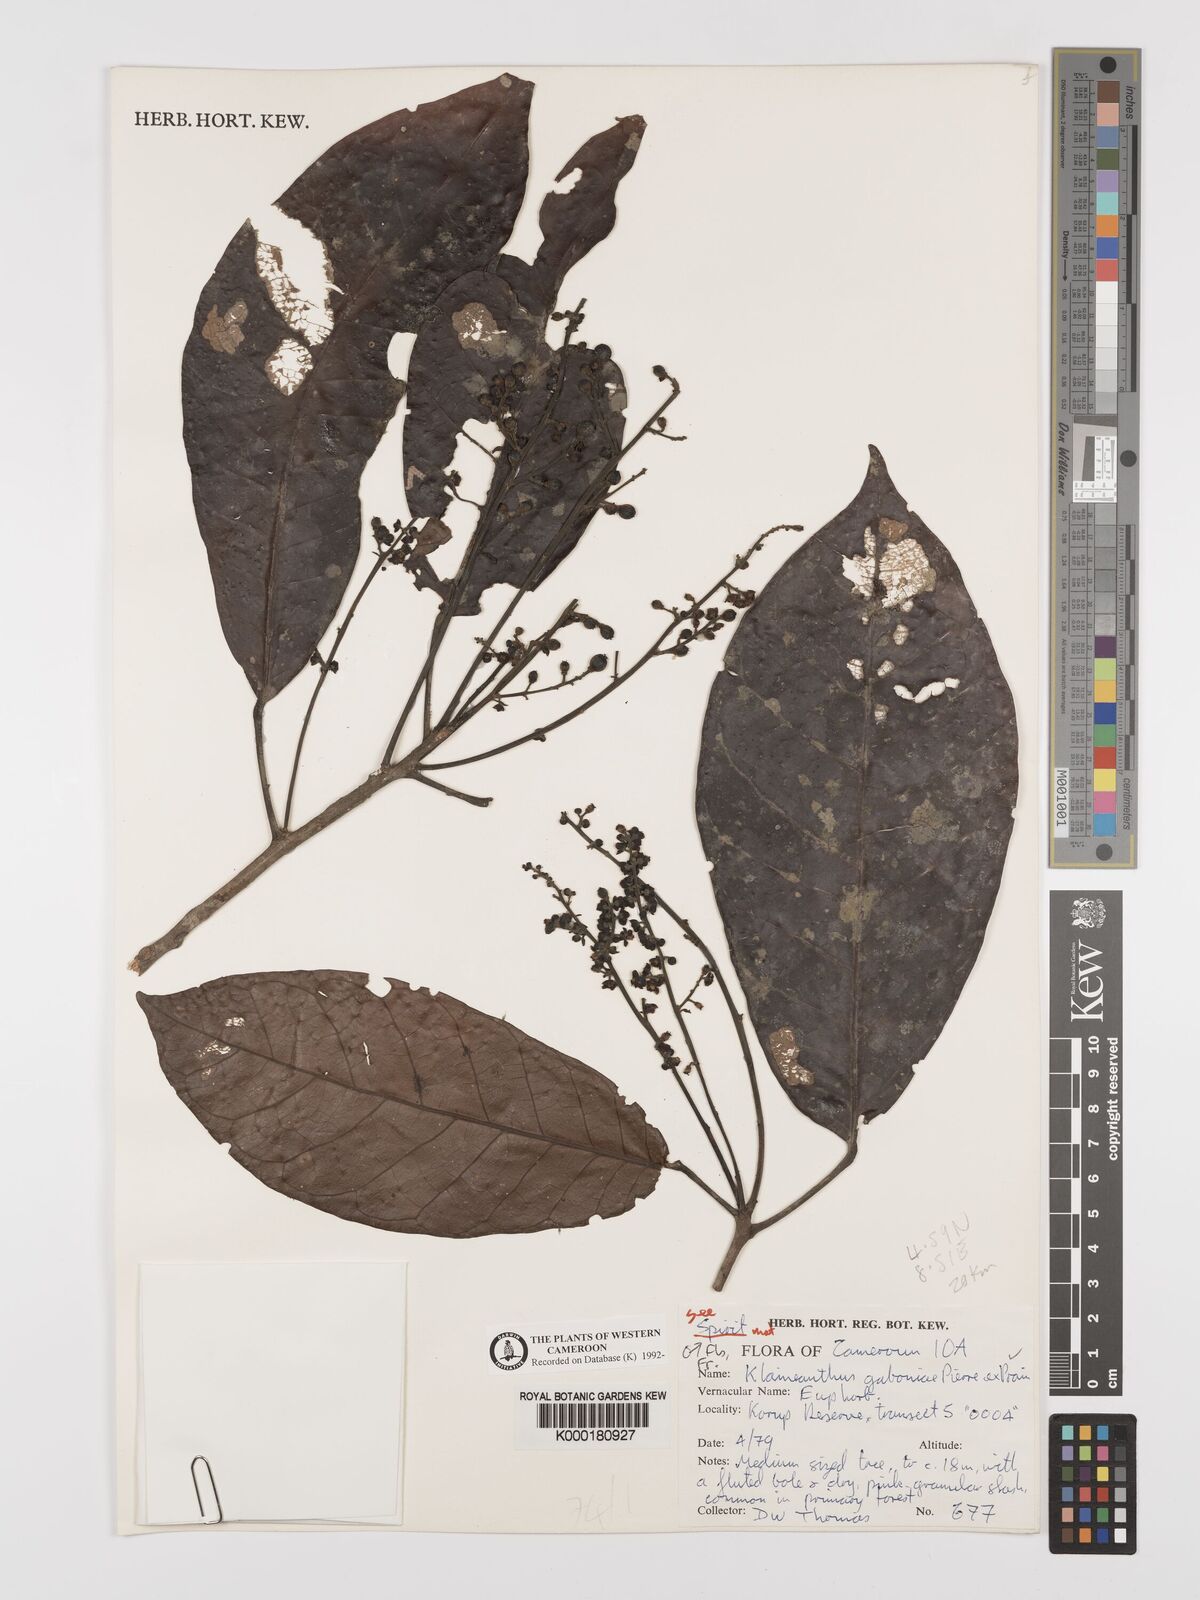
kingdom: Plantae
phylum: Tracheophyta
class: Magnoliopsida
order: Malpighiales
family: Euphorbiaceae
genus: Klaineanthus
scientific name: Klaineanthus
